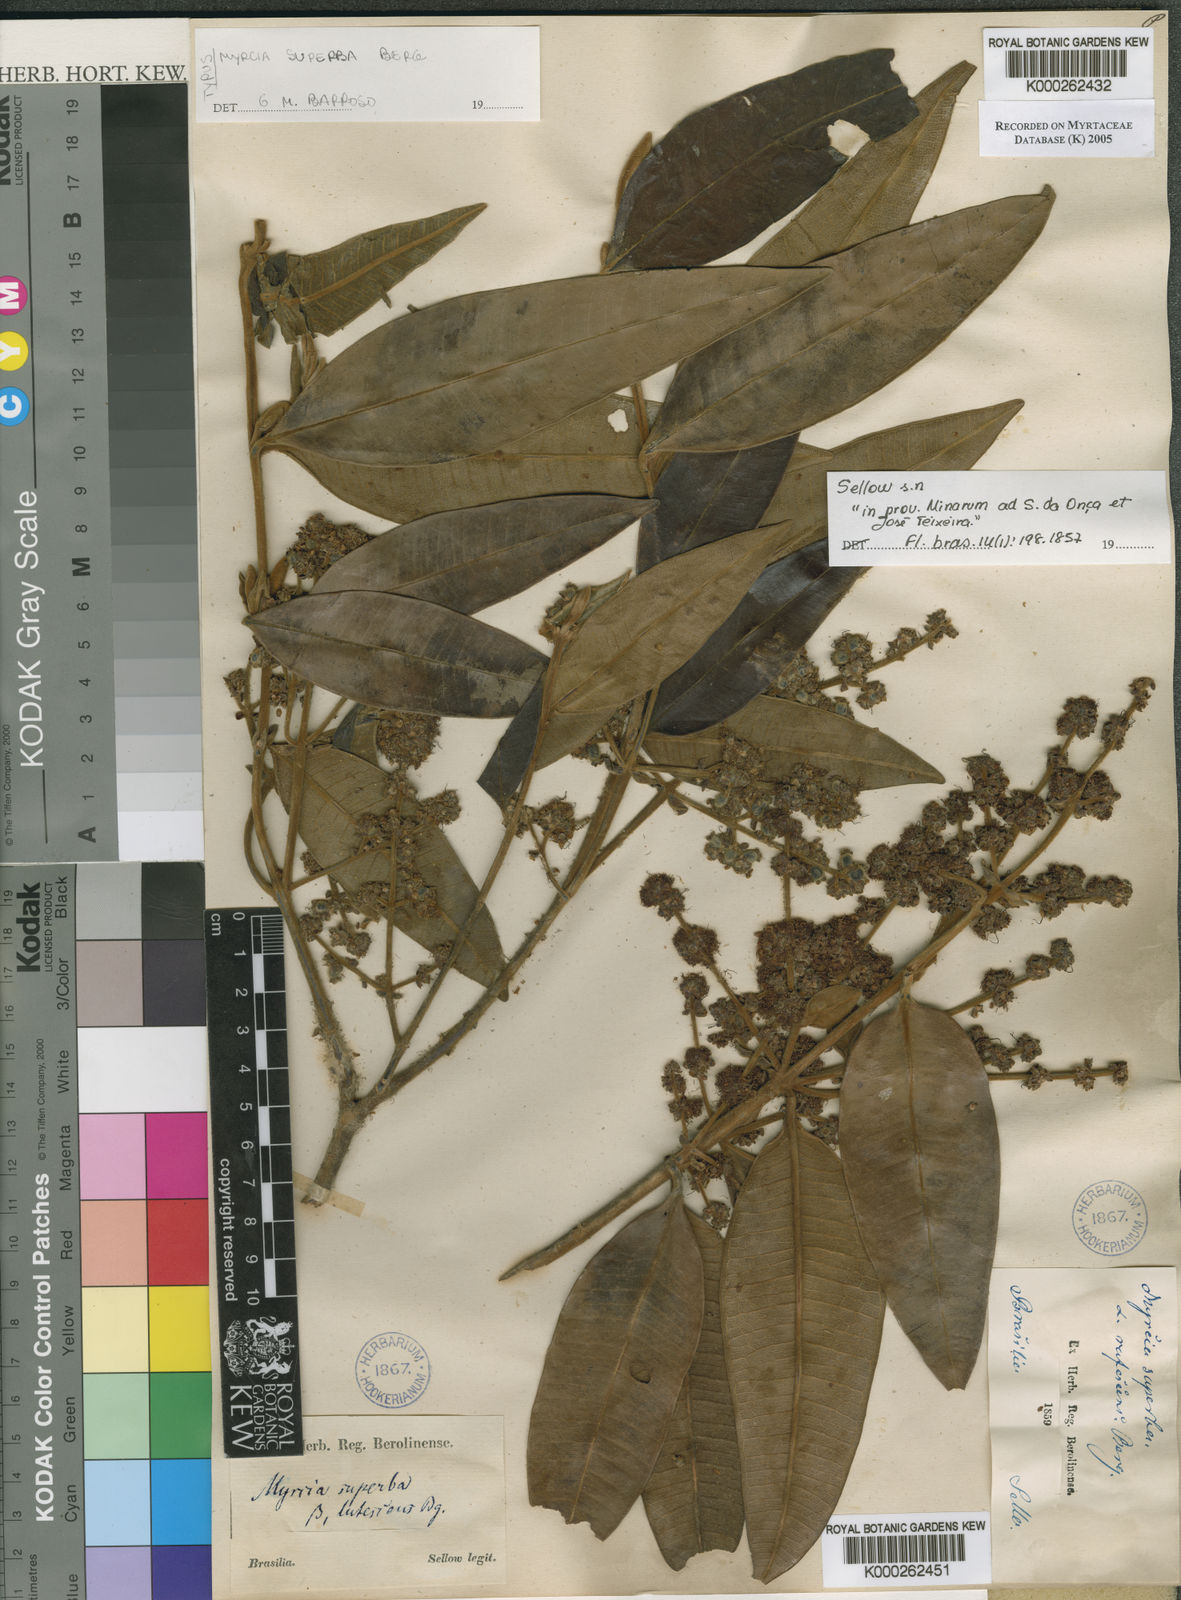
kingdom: Plantae
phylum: Tracheophyta
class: Magnoliopsida
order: Myrtales
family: Myrtaceae
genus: Myrcia
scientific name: Myrcia splendens
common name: Surinam cherry
